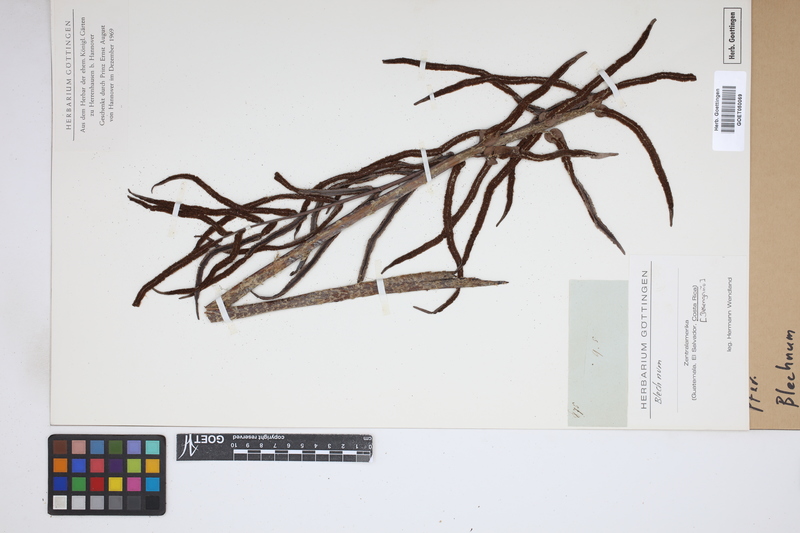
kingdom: Plantae
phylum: Tracheophyta
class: Polypodiopsida
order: Polypodiales
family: Blechnaceae
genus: Blechnum
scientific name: Blechnum
